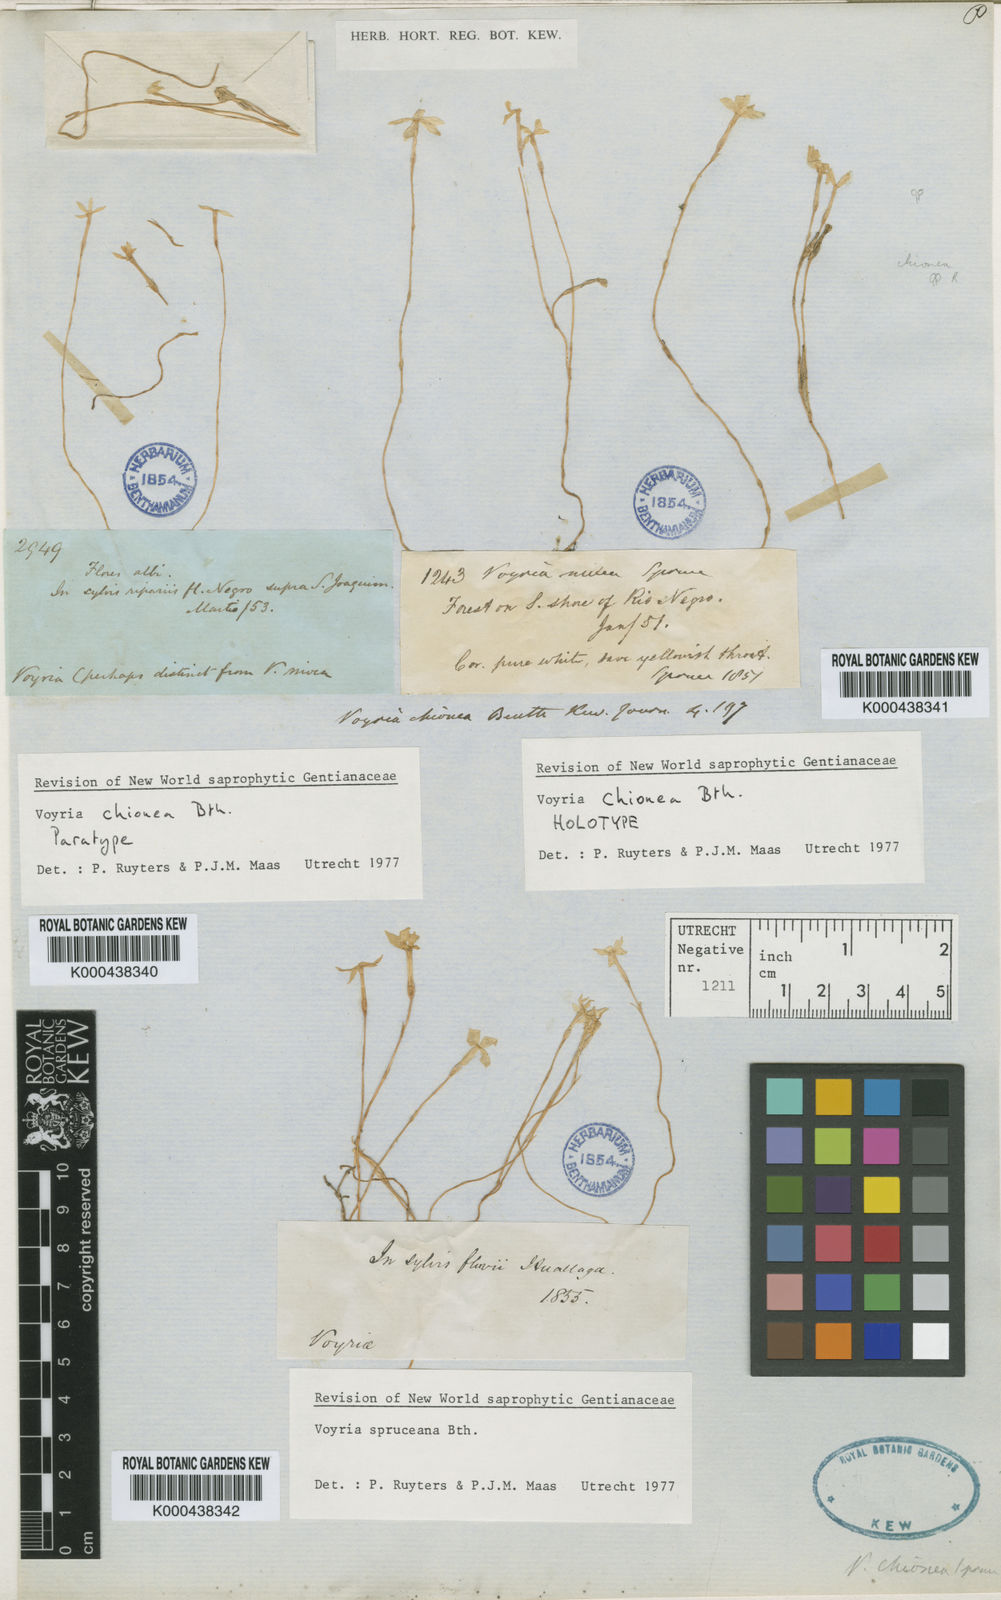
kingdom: Plantae
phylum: Tracheophyta
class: Magnoliopsida
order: Gentianales
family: Gentianaceae
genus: Voyria
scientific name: Voyria chionea
